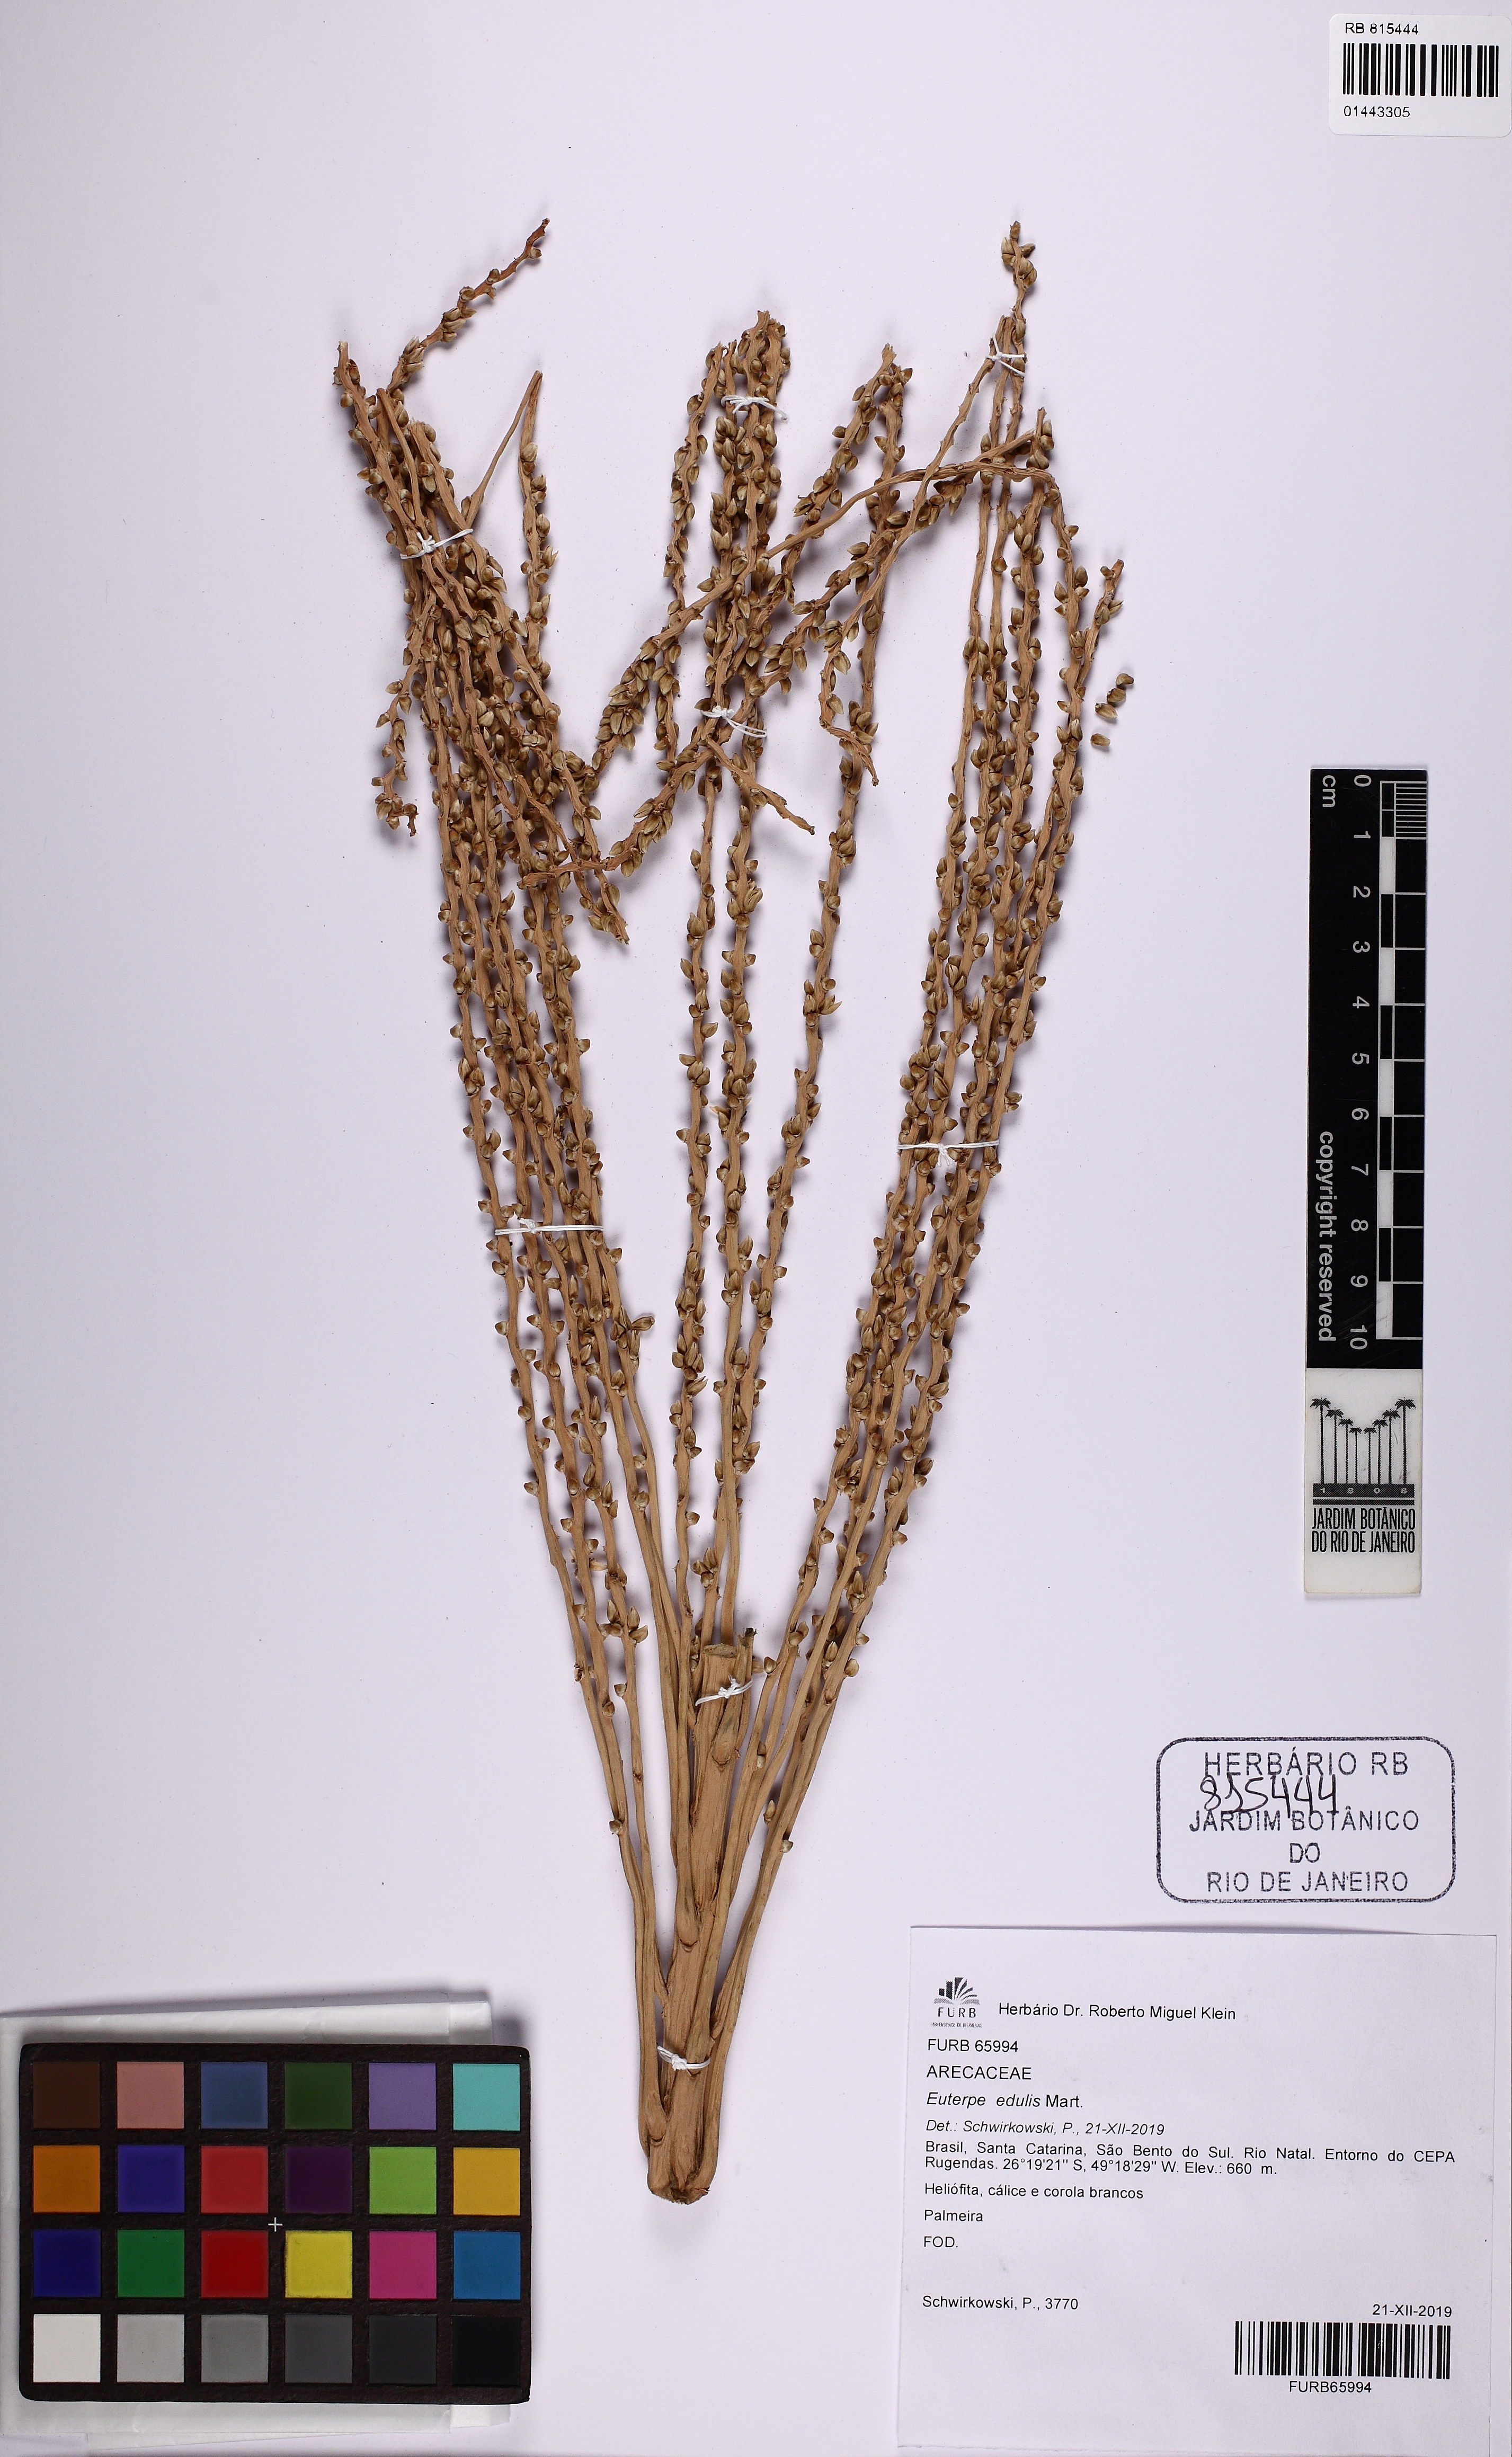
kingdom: Plantae
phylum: Tracheophyta
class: Liliopsida
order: Arecales
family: Arecaceae
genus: Euterpe
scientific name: Euterpe edulis
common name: Assai palm
